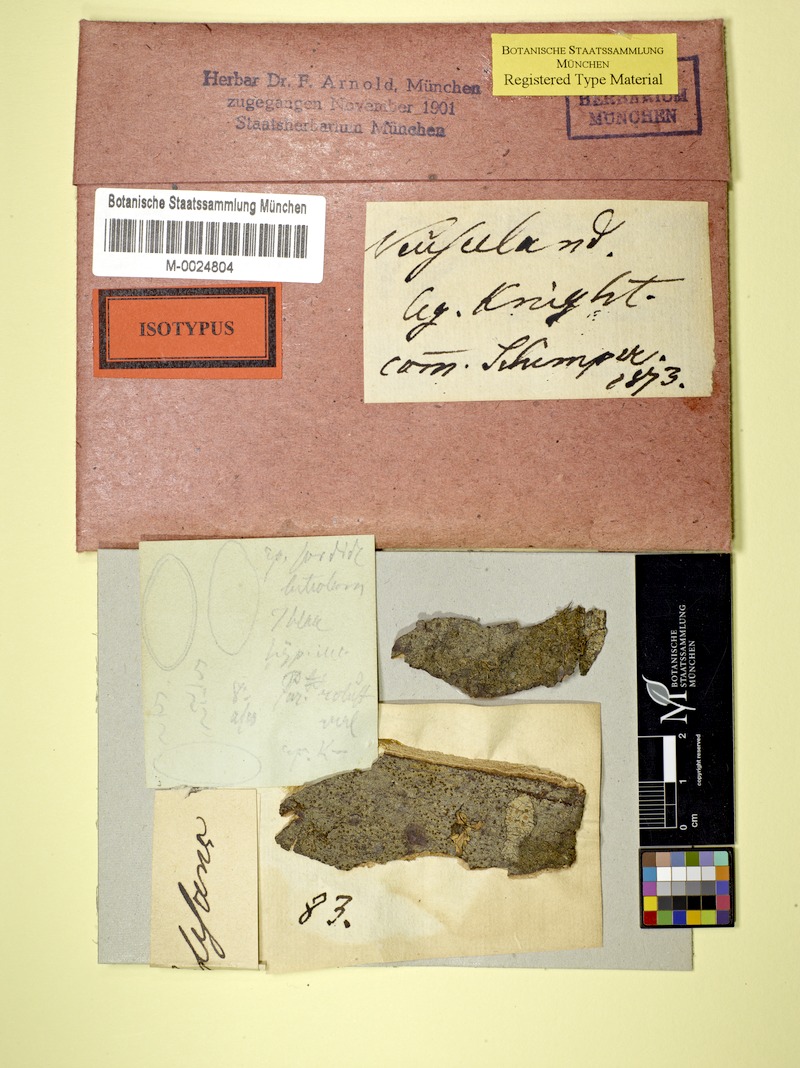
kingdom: Fungi
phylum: Ascomycota
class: Lecanoromycetes
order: Lecanorales
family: Malmideaceae
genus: Australidea
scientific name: Australidea canorufescens
